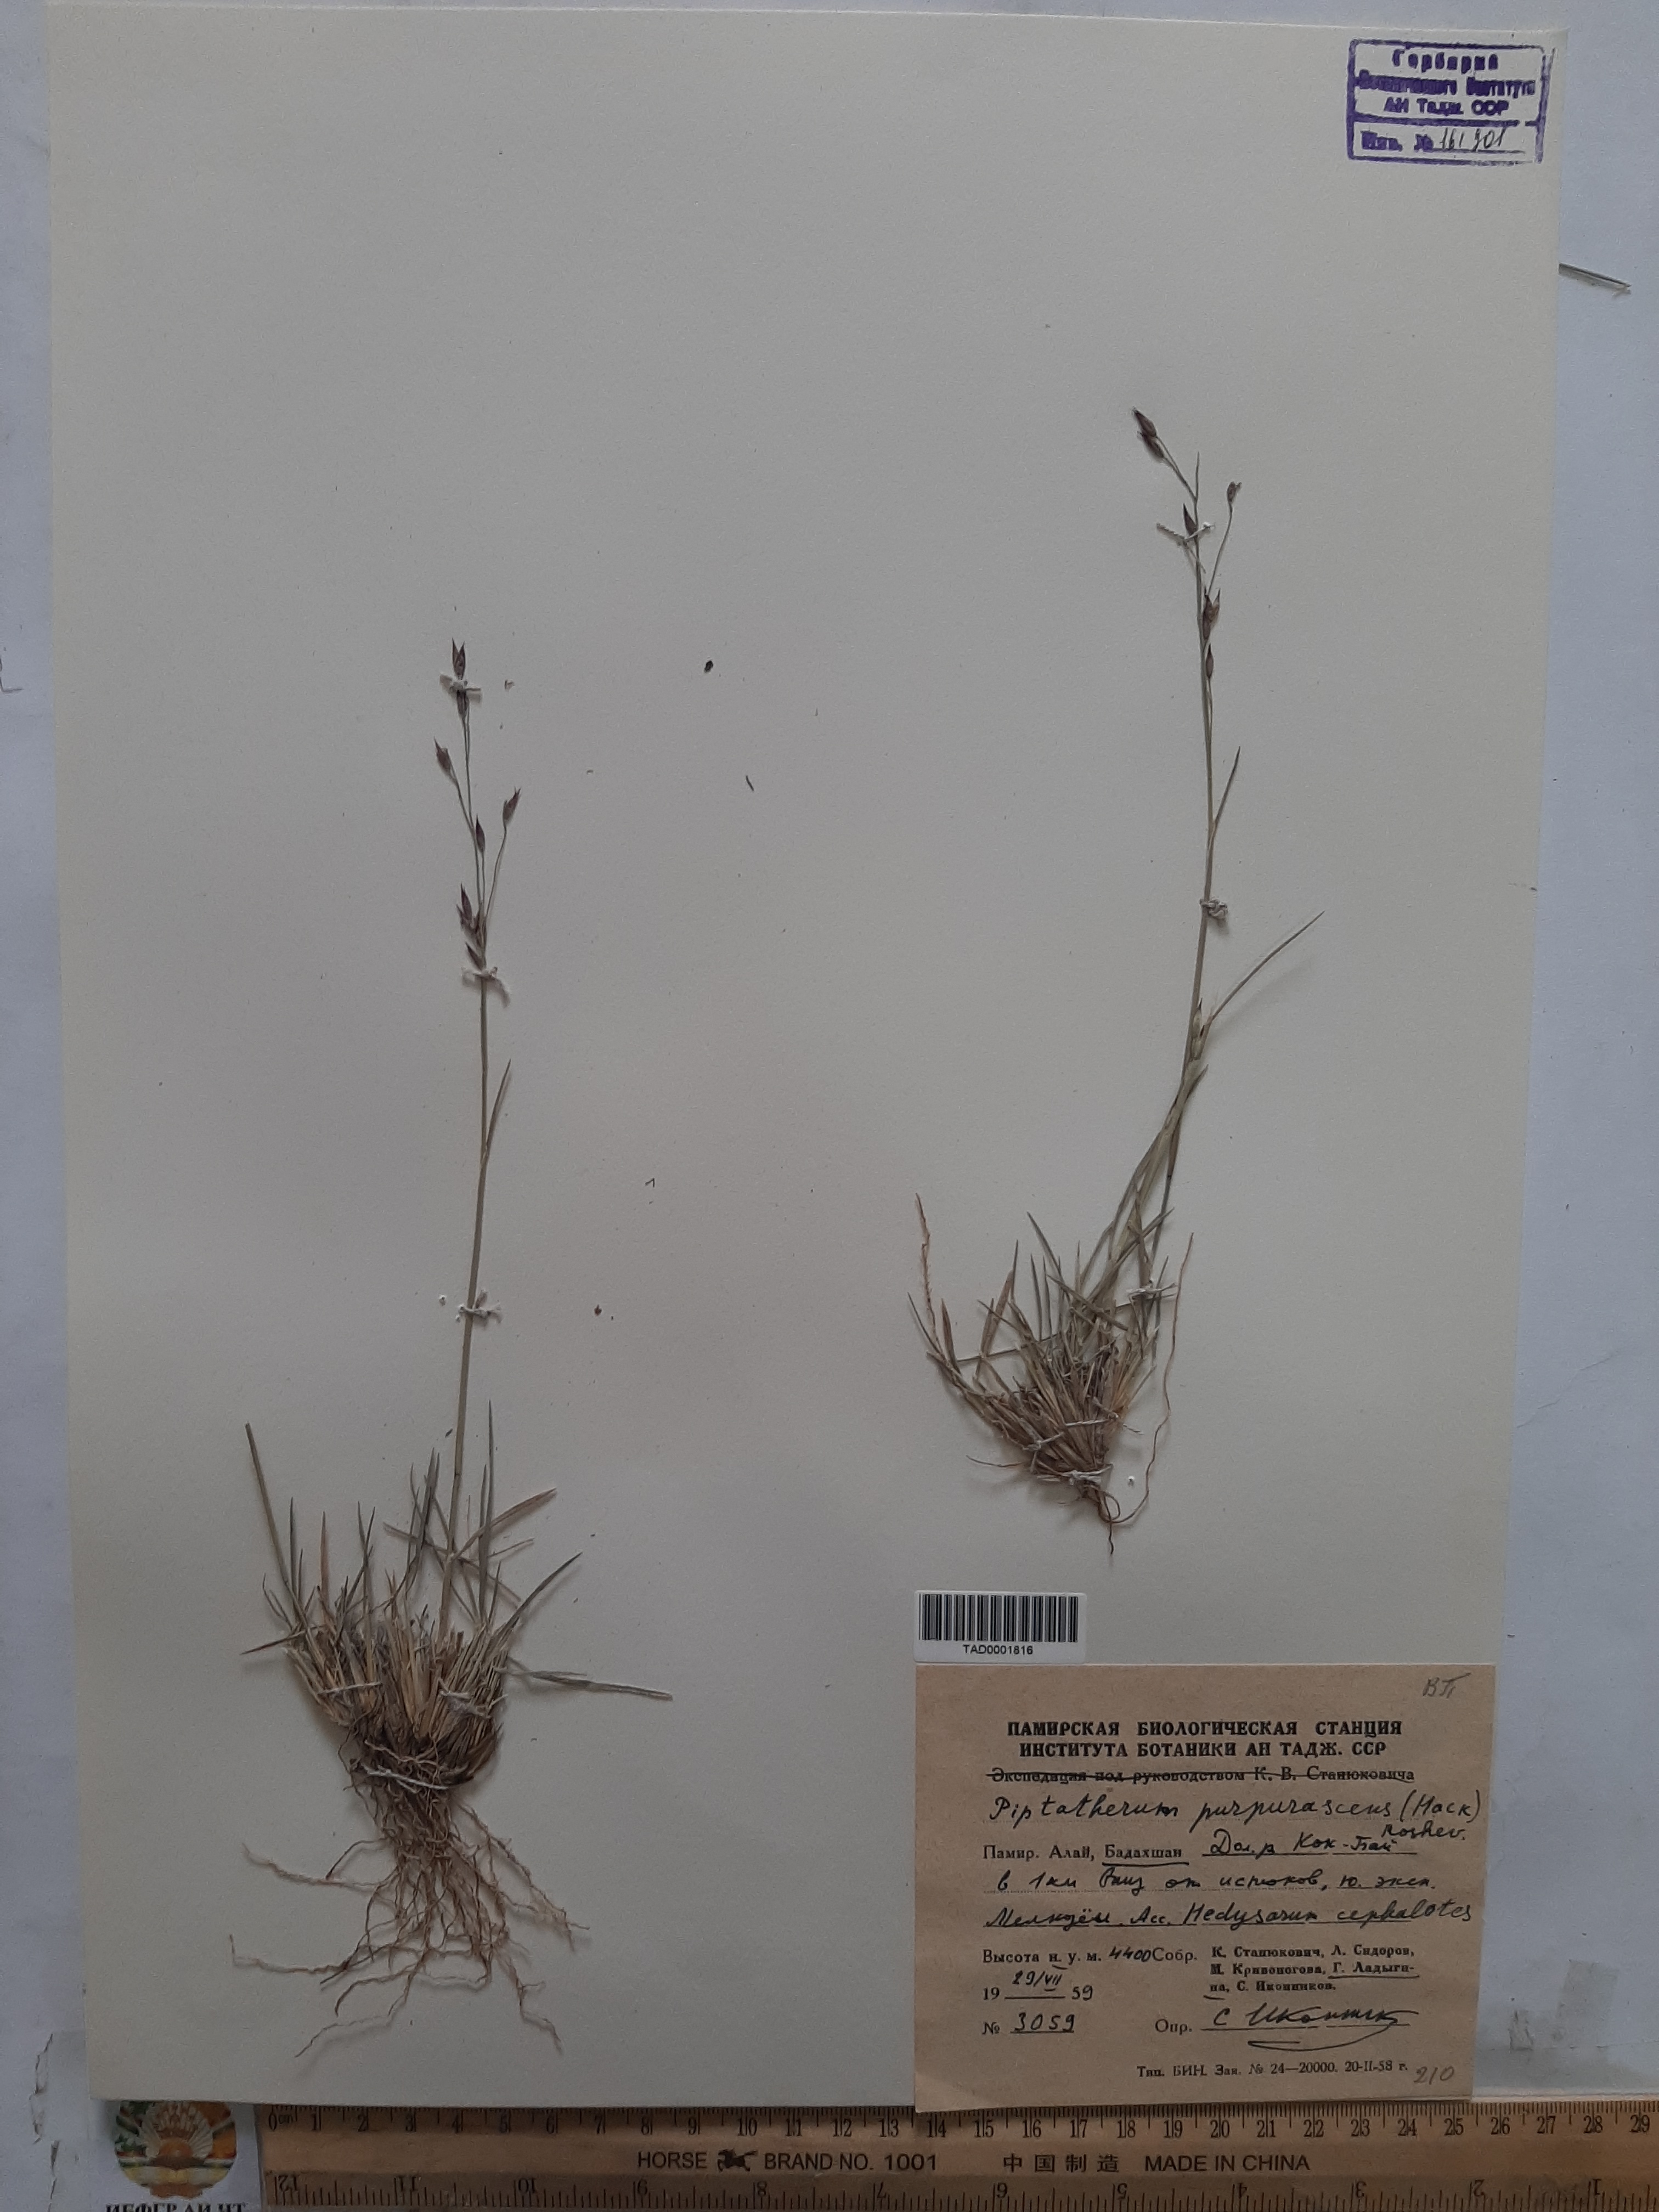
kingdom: Plantae
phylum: Tracheophyta
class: Liliopsida
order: Poales
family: Poaceae
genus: Piptatherum
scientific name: Piptatherum purpurascens
